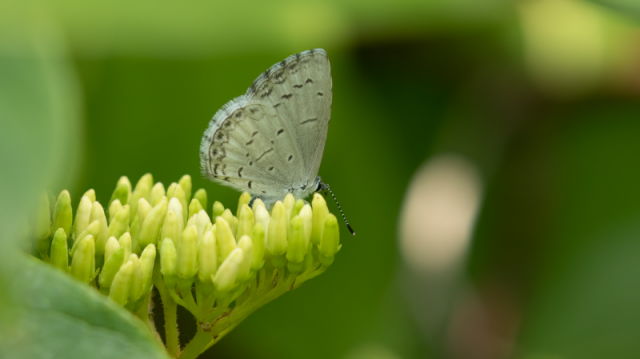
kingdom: Animalia
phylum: Arthropoda
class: Insecta
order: Lepidoptera
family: Lycaenidae
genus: Cyaniris
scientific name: Cyaniris neglecta
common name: Summer Azure
